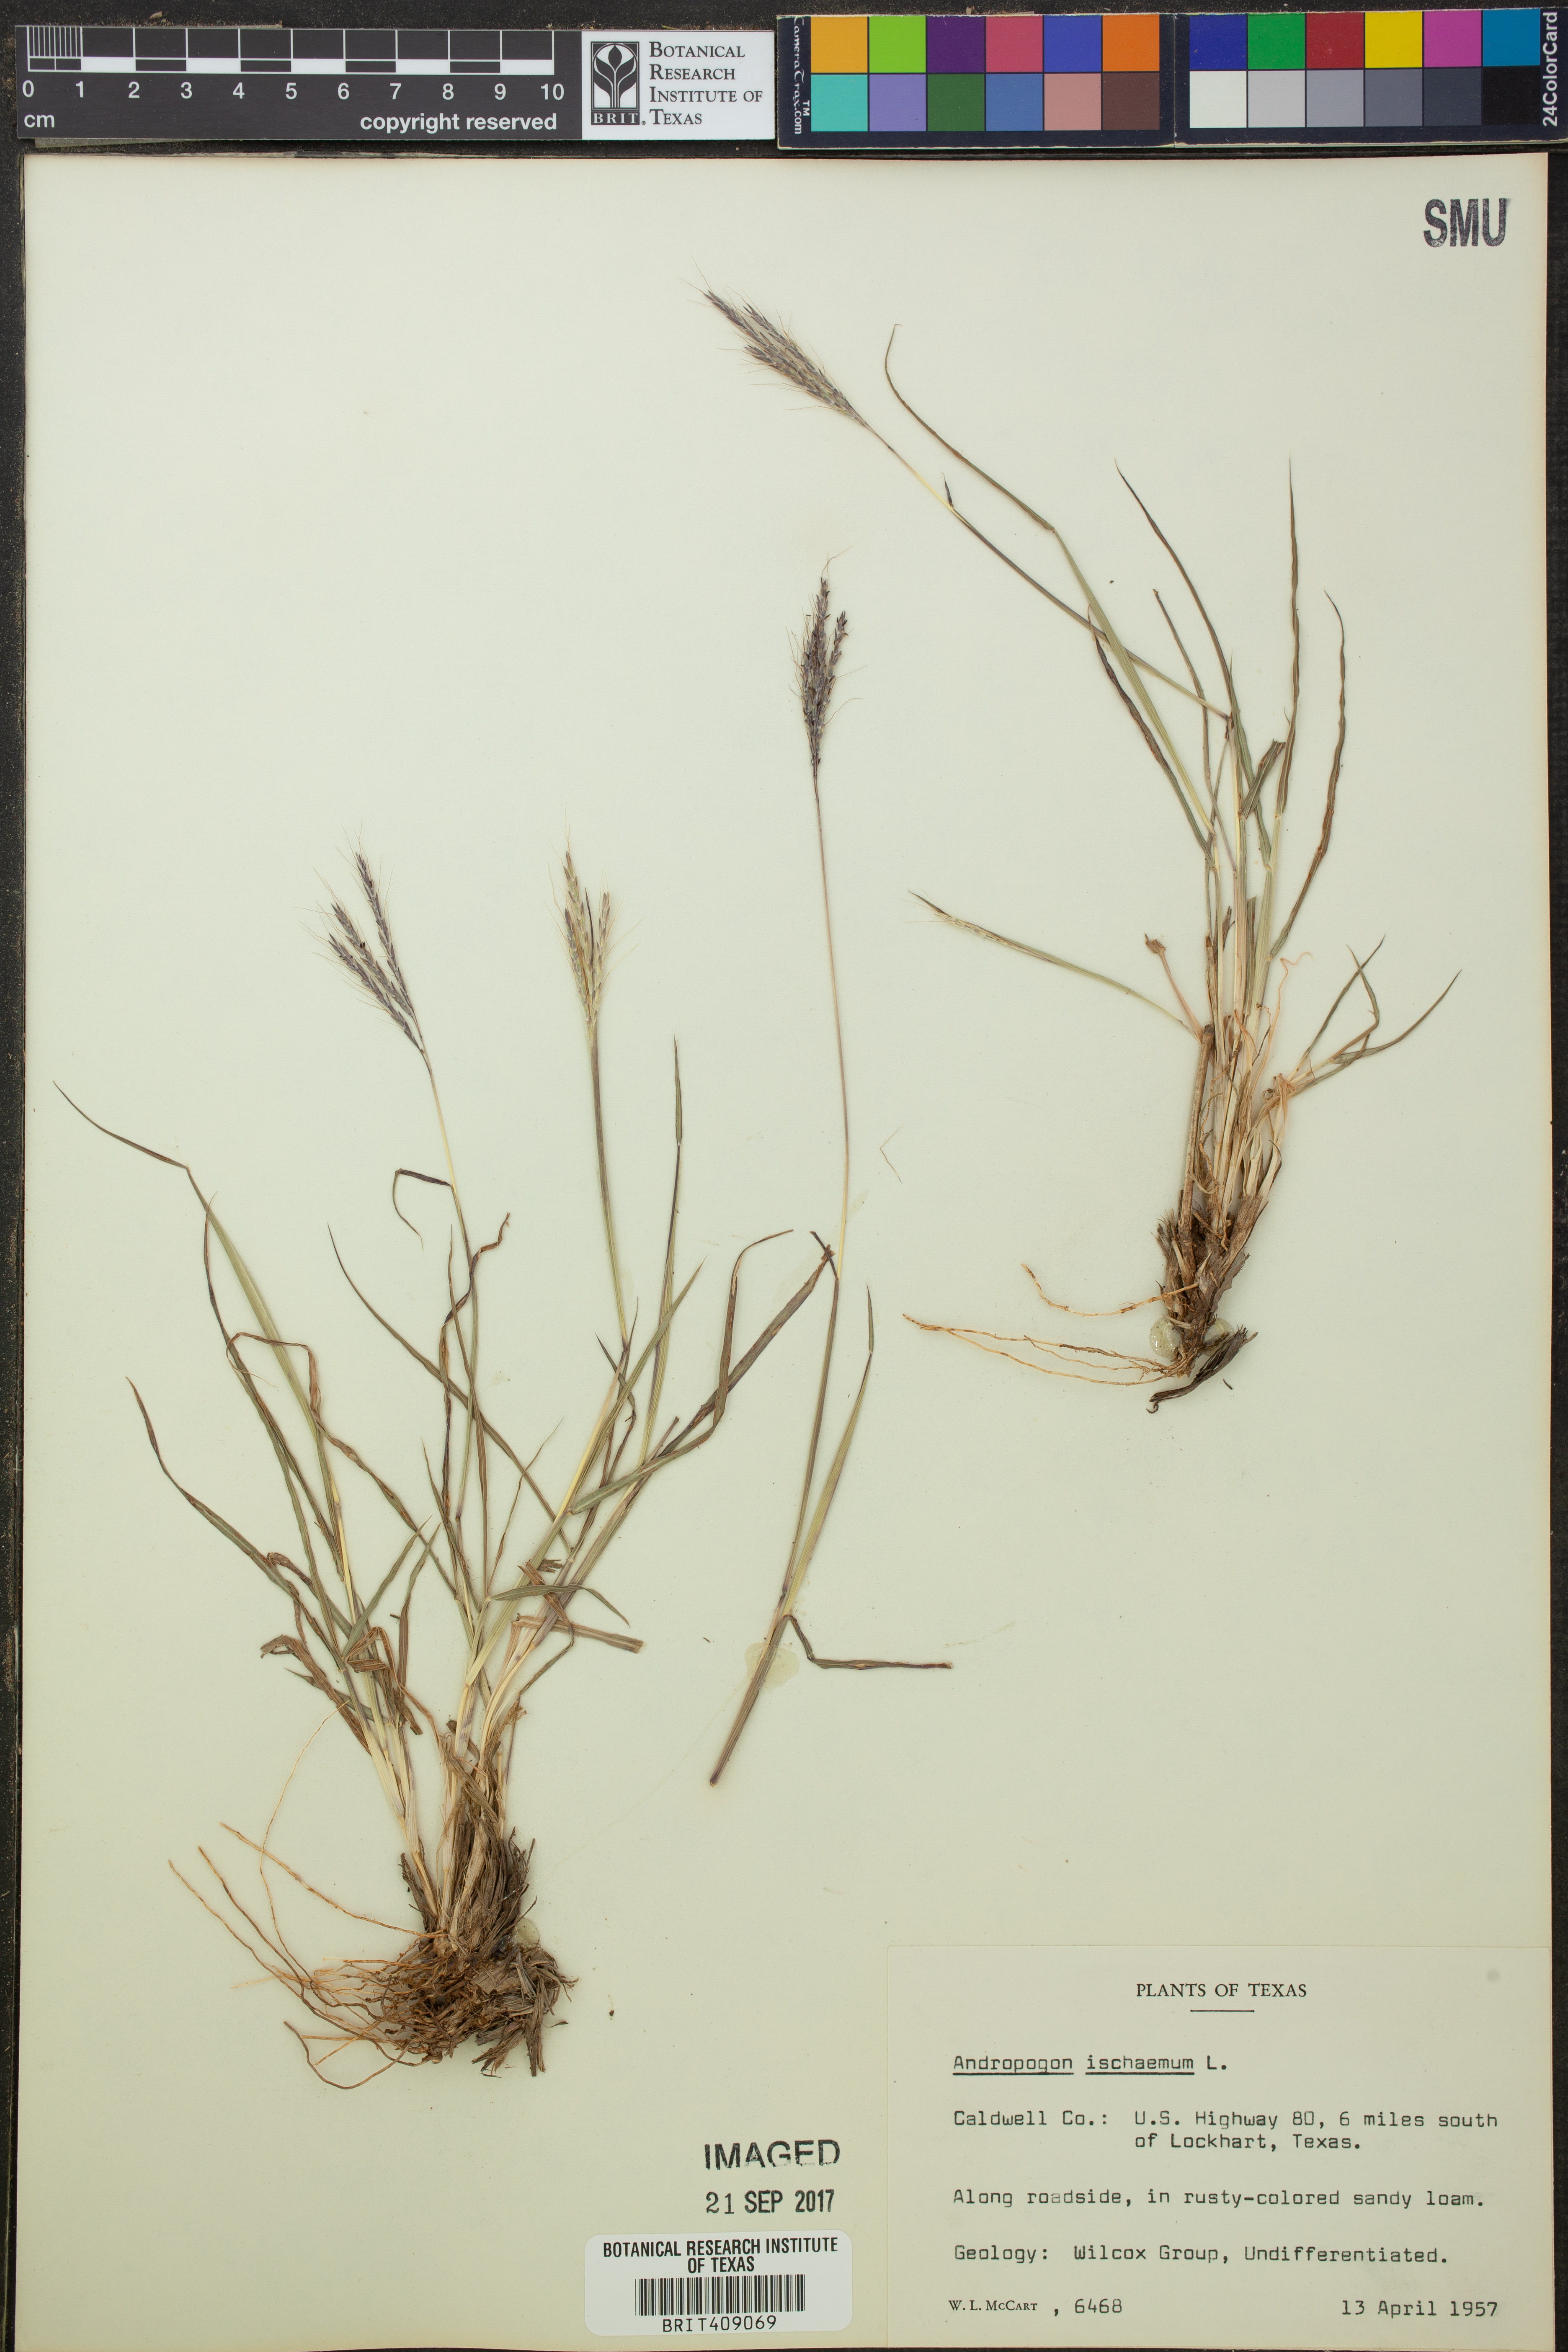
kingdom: Plantae
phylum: Tracheophyta
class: Liliopsida
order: Poales
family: Poaceae
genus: Andropogon
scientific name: Andropogon ischaemum
